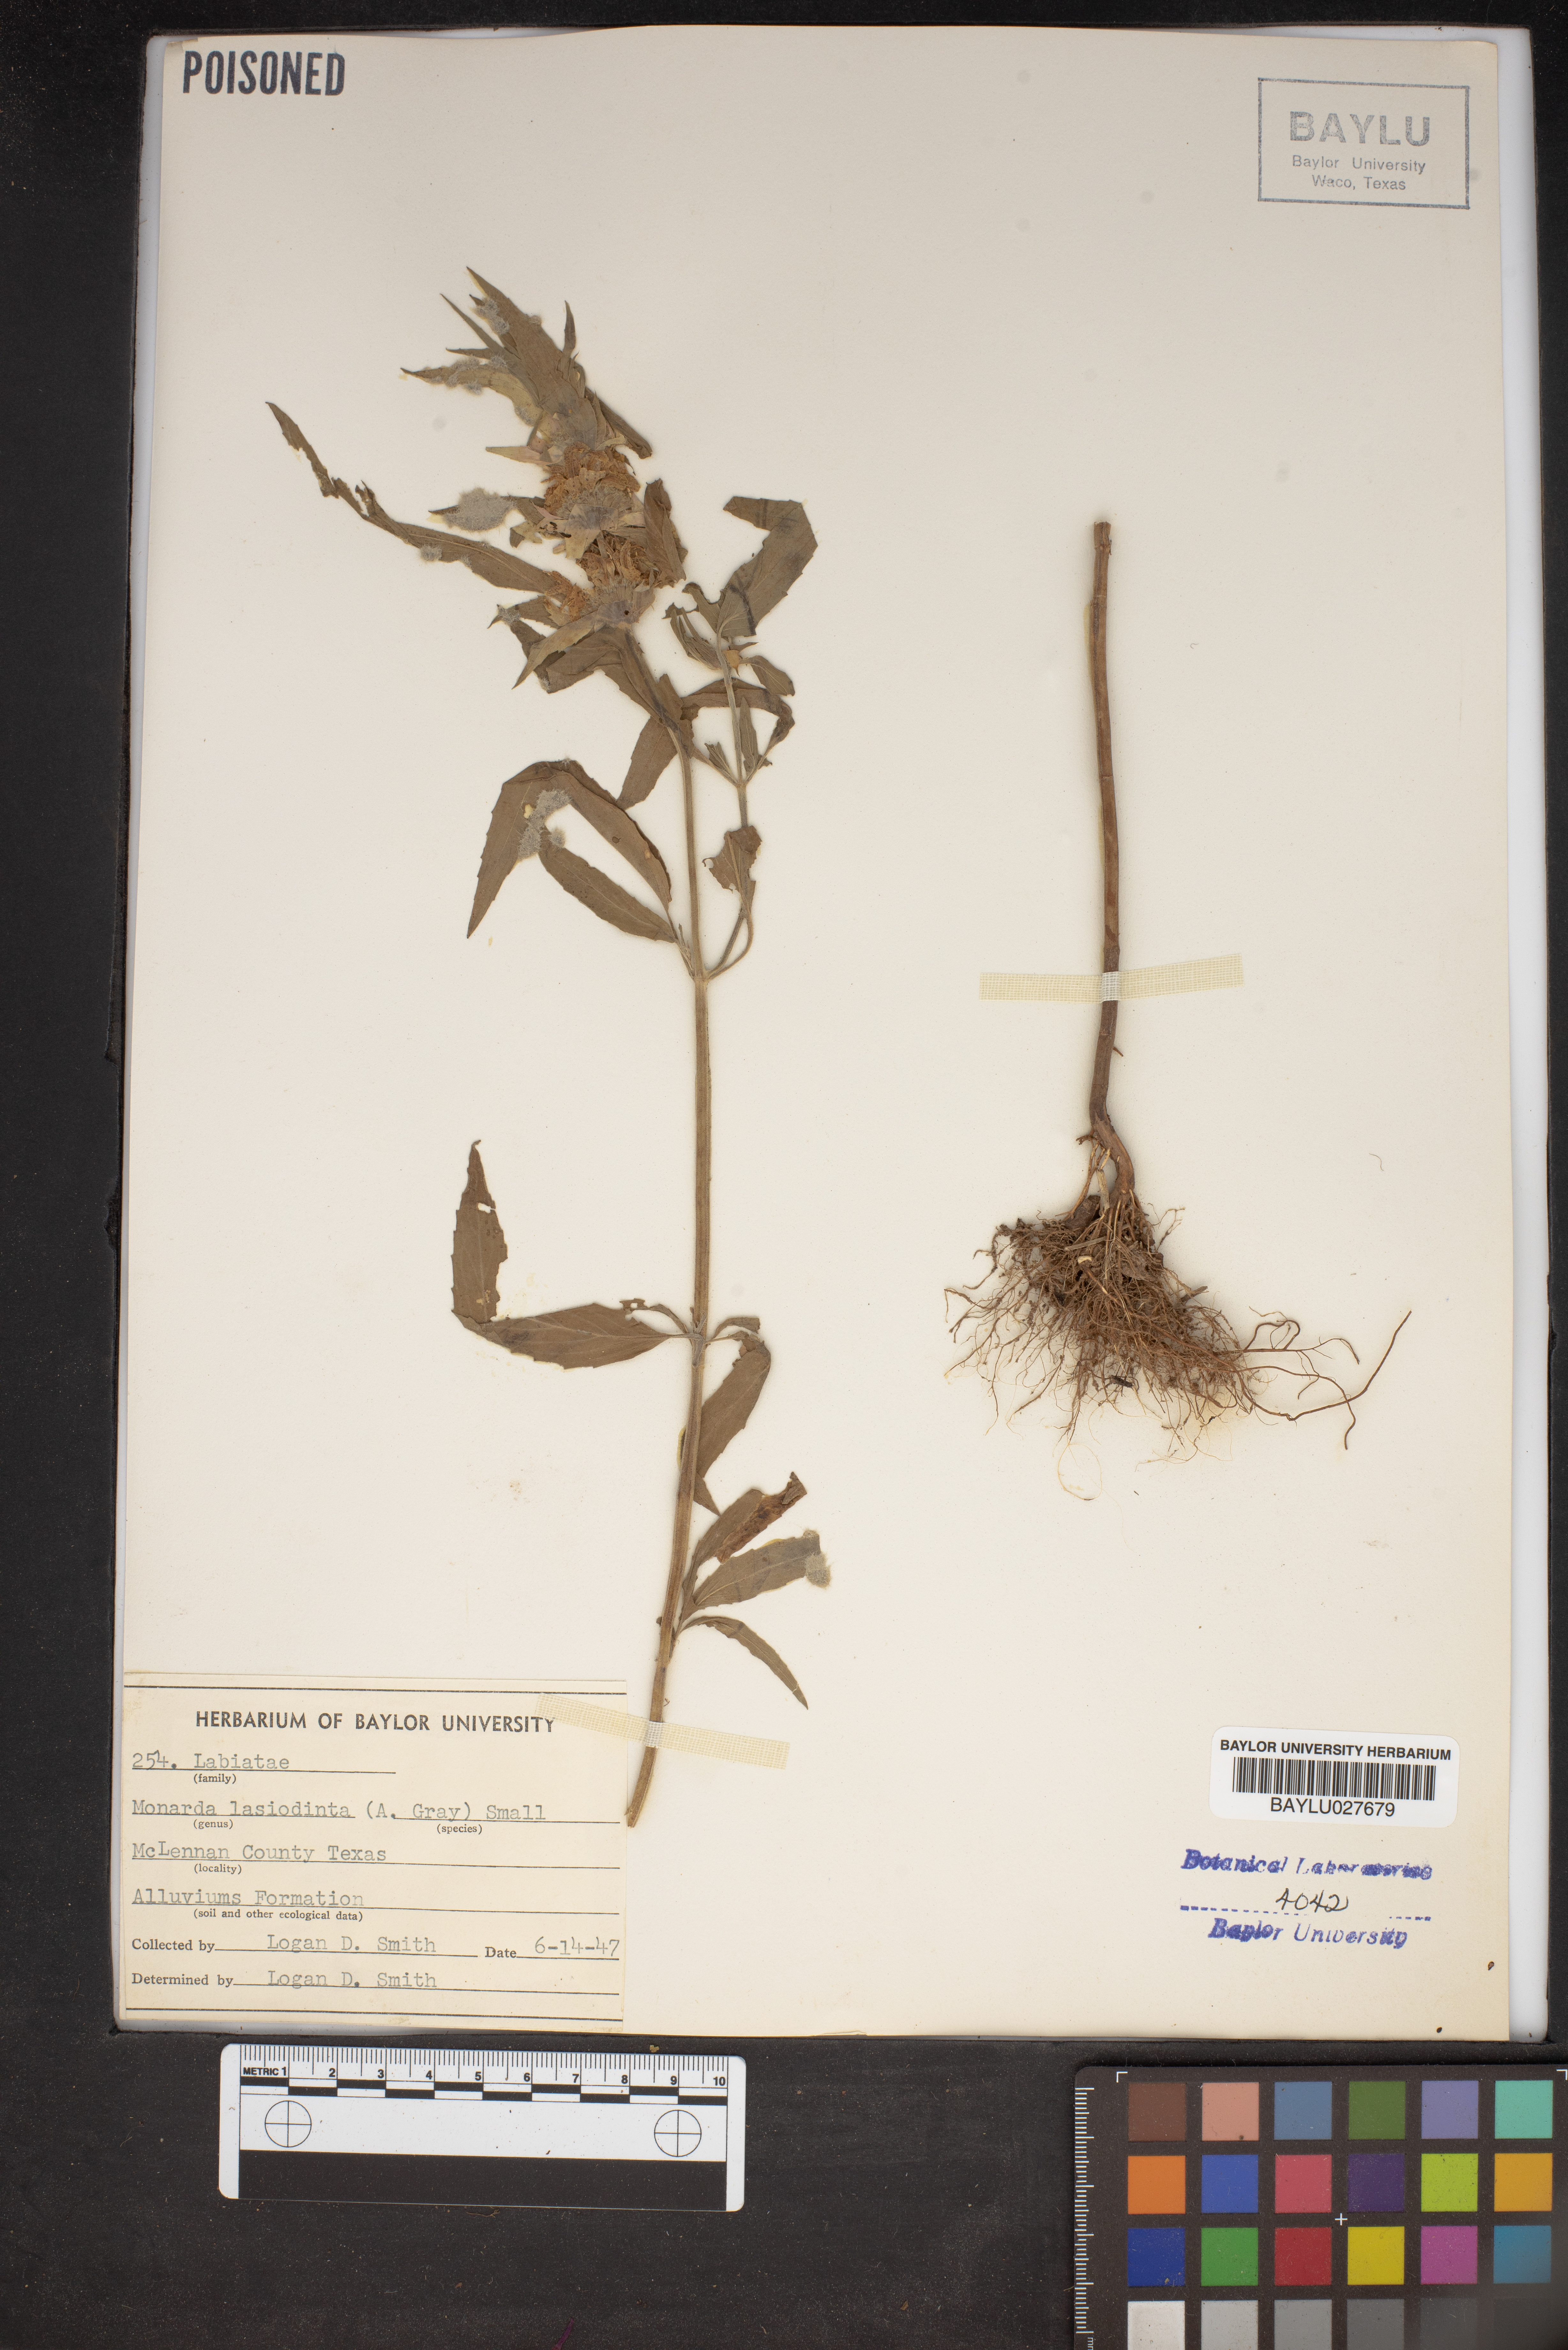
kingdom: Plantae
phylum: Tracheophyta
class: Magnoliopsida
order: Lamiales
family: Lamiaceae
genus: Monarda
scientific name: Monarda punctata
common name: Dotted monarda
